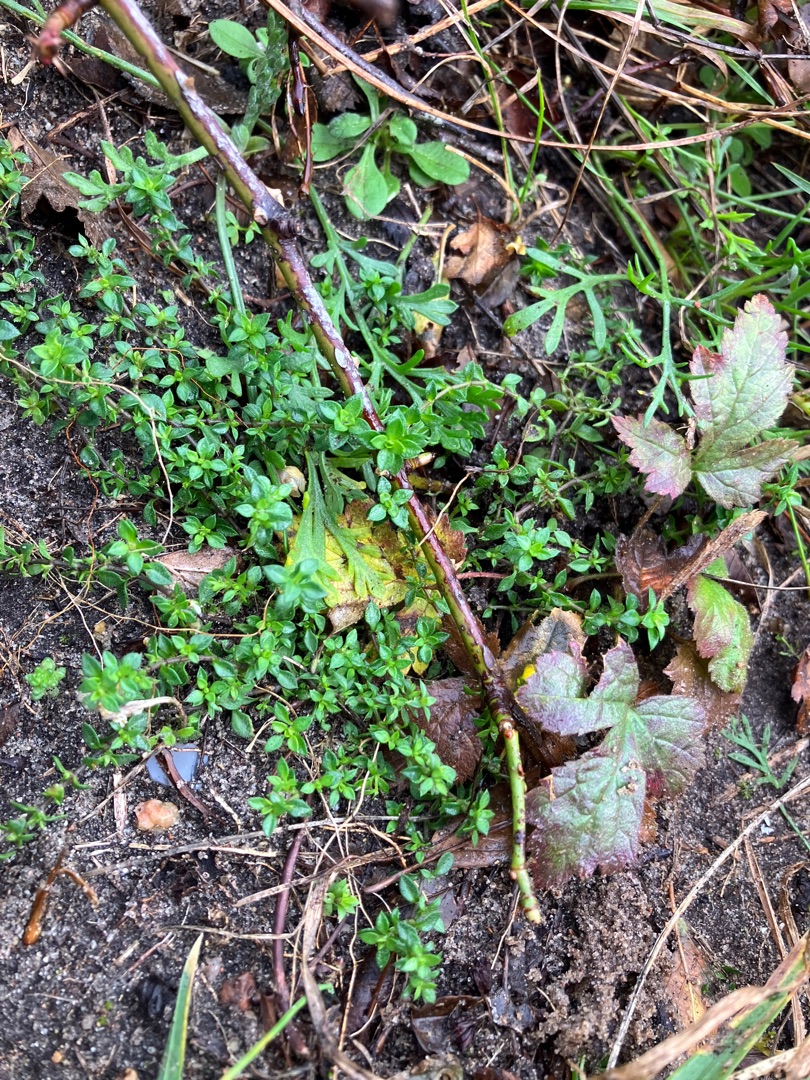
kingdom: Plantae
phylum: Tracheophyta
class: Magnoliopsida
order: Caryophyllales
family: Caryophyllaceae
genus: Arenaria
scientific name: Arenaria serpyllifolia
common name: Almindelig markarve
